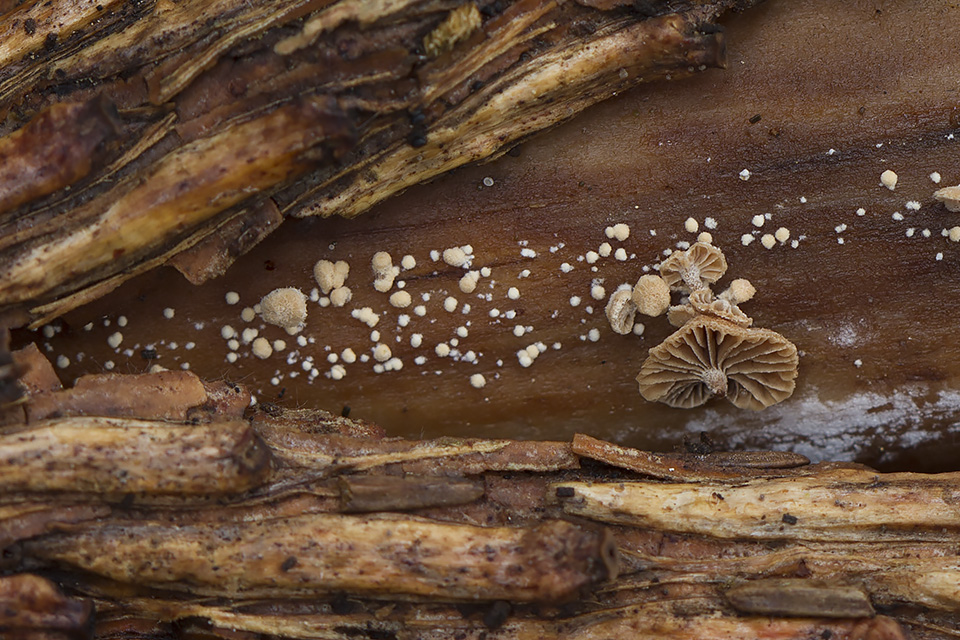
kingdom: Fungi
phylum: Basidiomycota
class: Agaricomycetes
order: Agaricales
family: Strophariaceae
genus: Deconica
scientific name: Deconica horizontalis
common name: ved-stråhat
